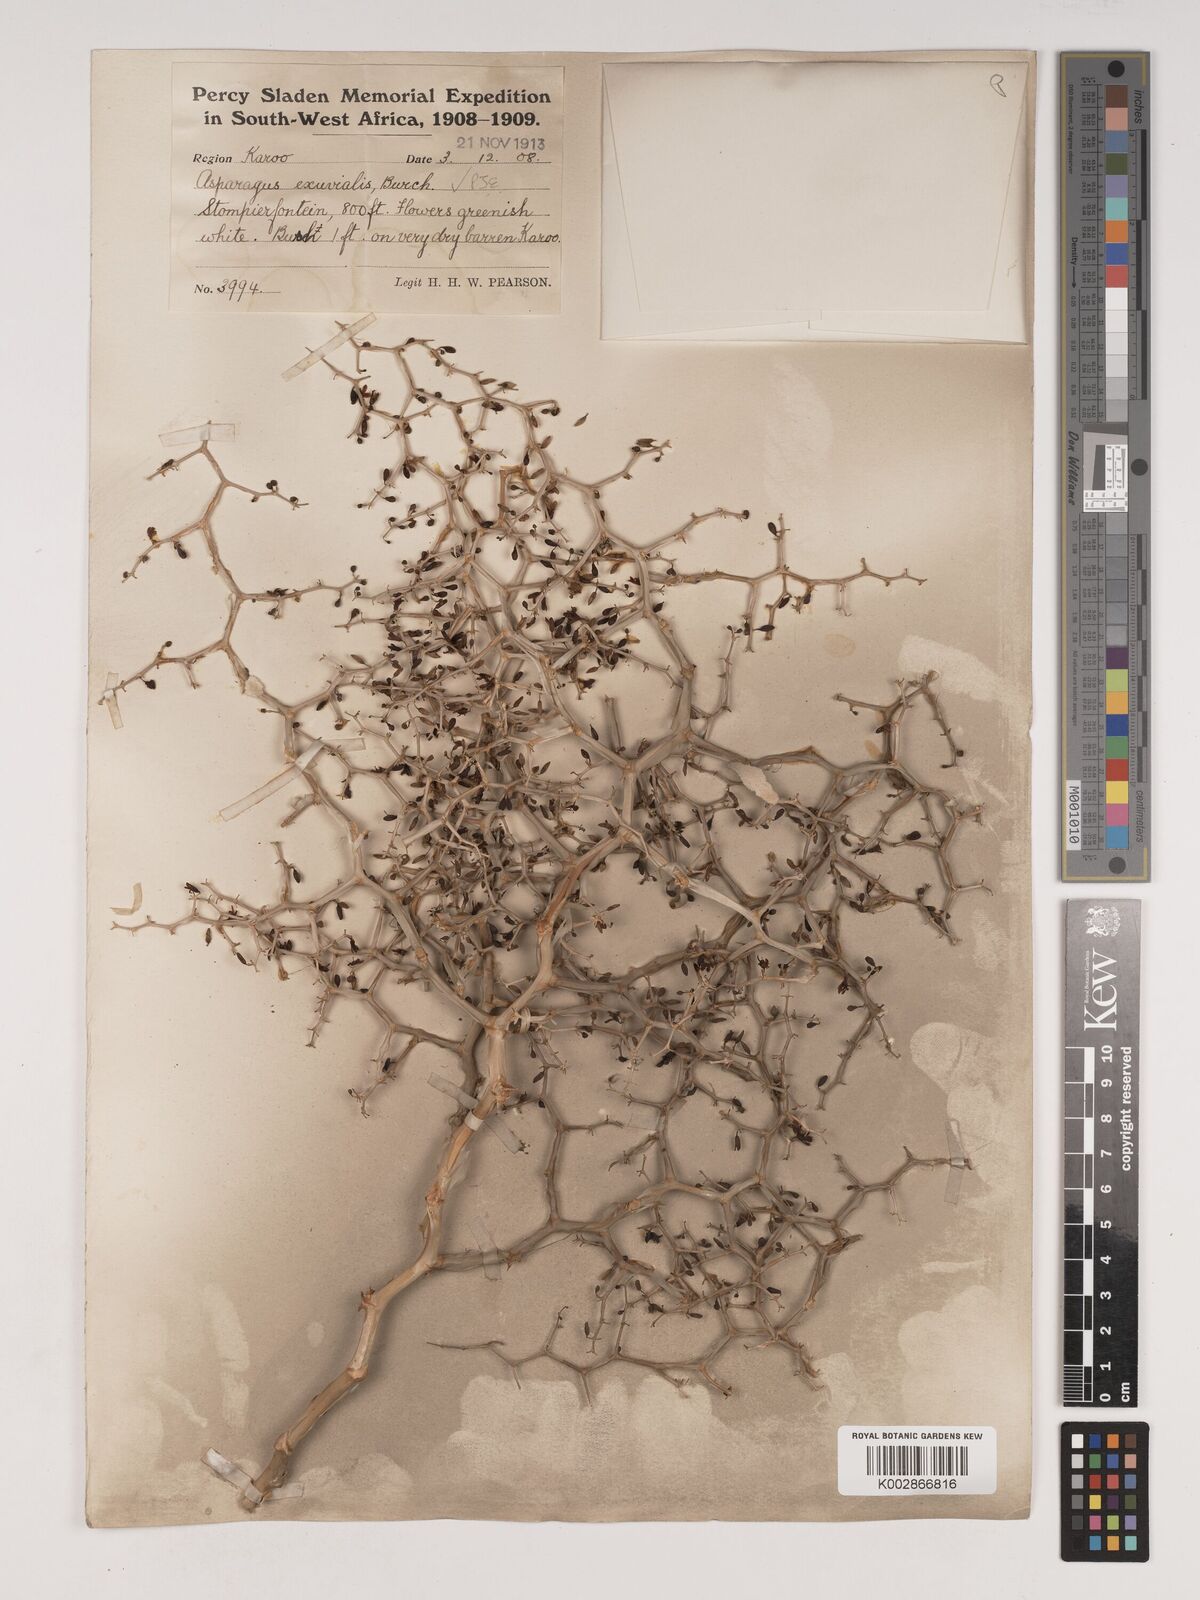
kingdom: Plantae
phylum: Tracheophyta
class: Liliopsida
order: Asparagales
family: Asparagaceae
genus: Asparagus
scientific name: Asparagus exuvialis
